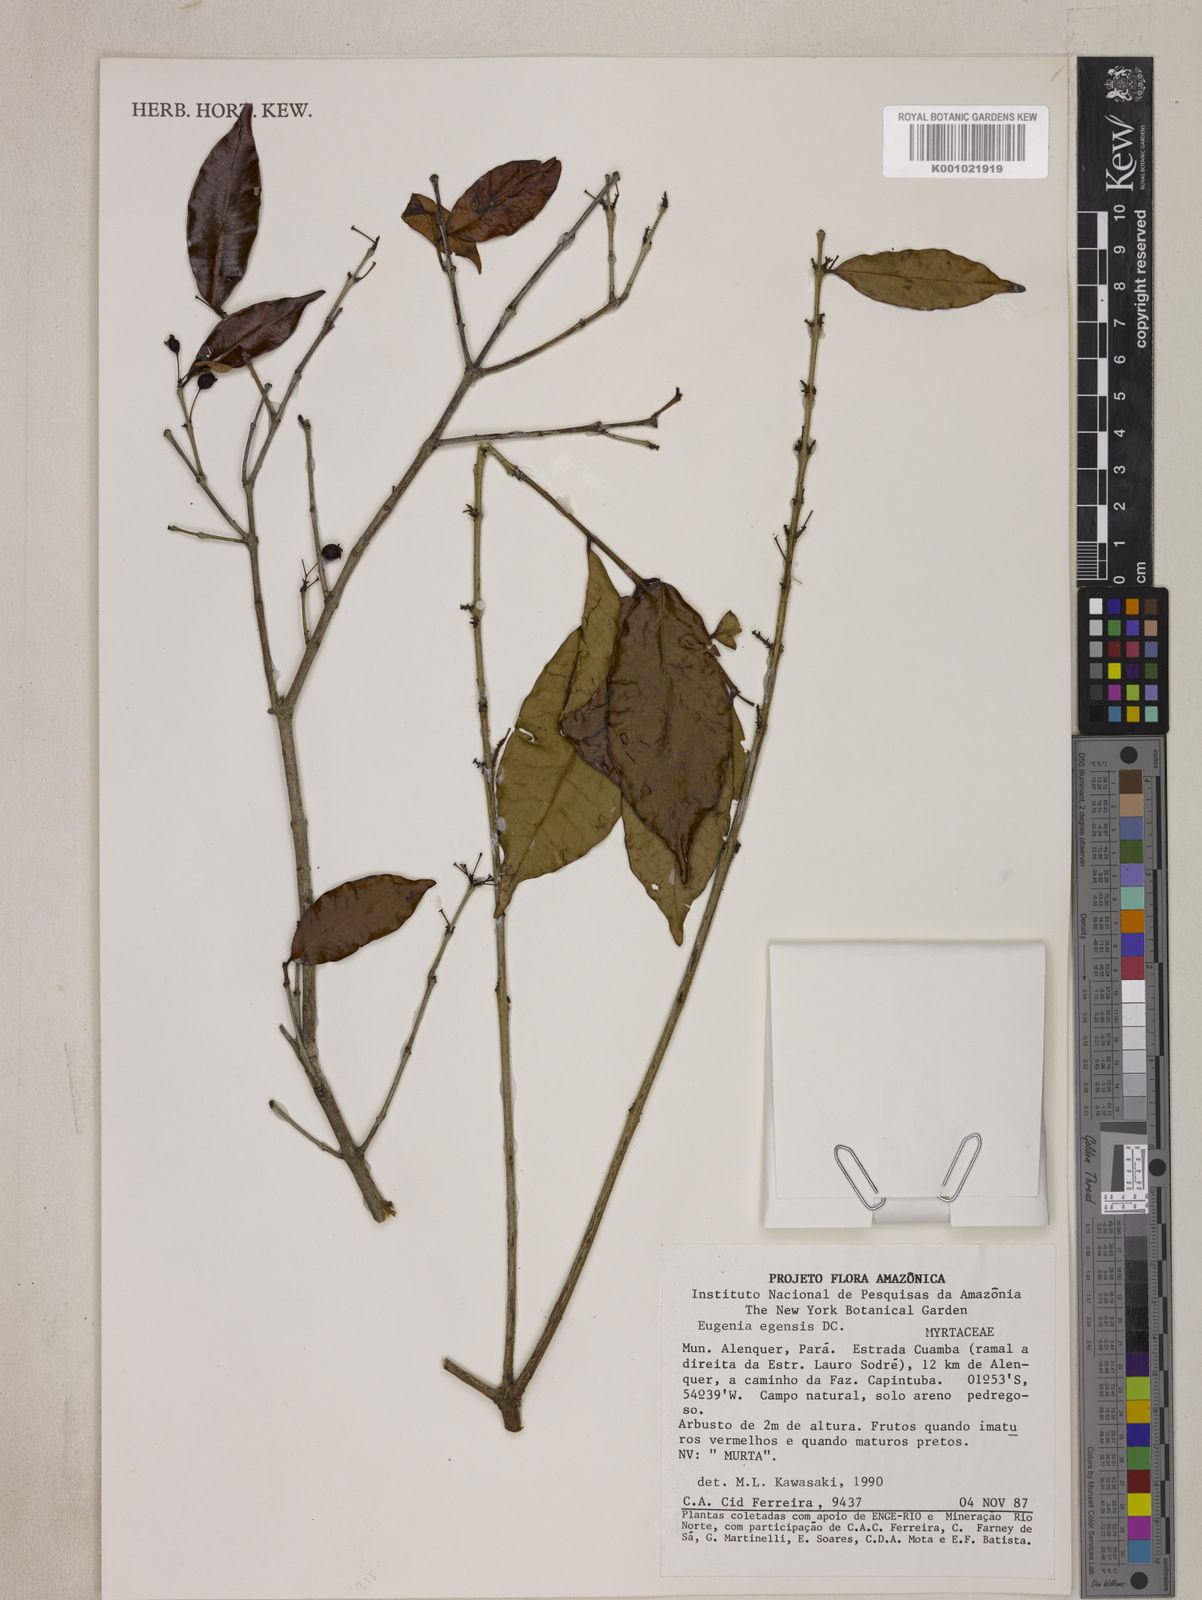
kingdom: Plantae
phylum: Tracheophyta
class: Magnoliopsida
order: Myrtales
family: Myrtaceae
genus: Eugenia
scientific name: Eugenia egensis
